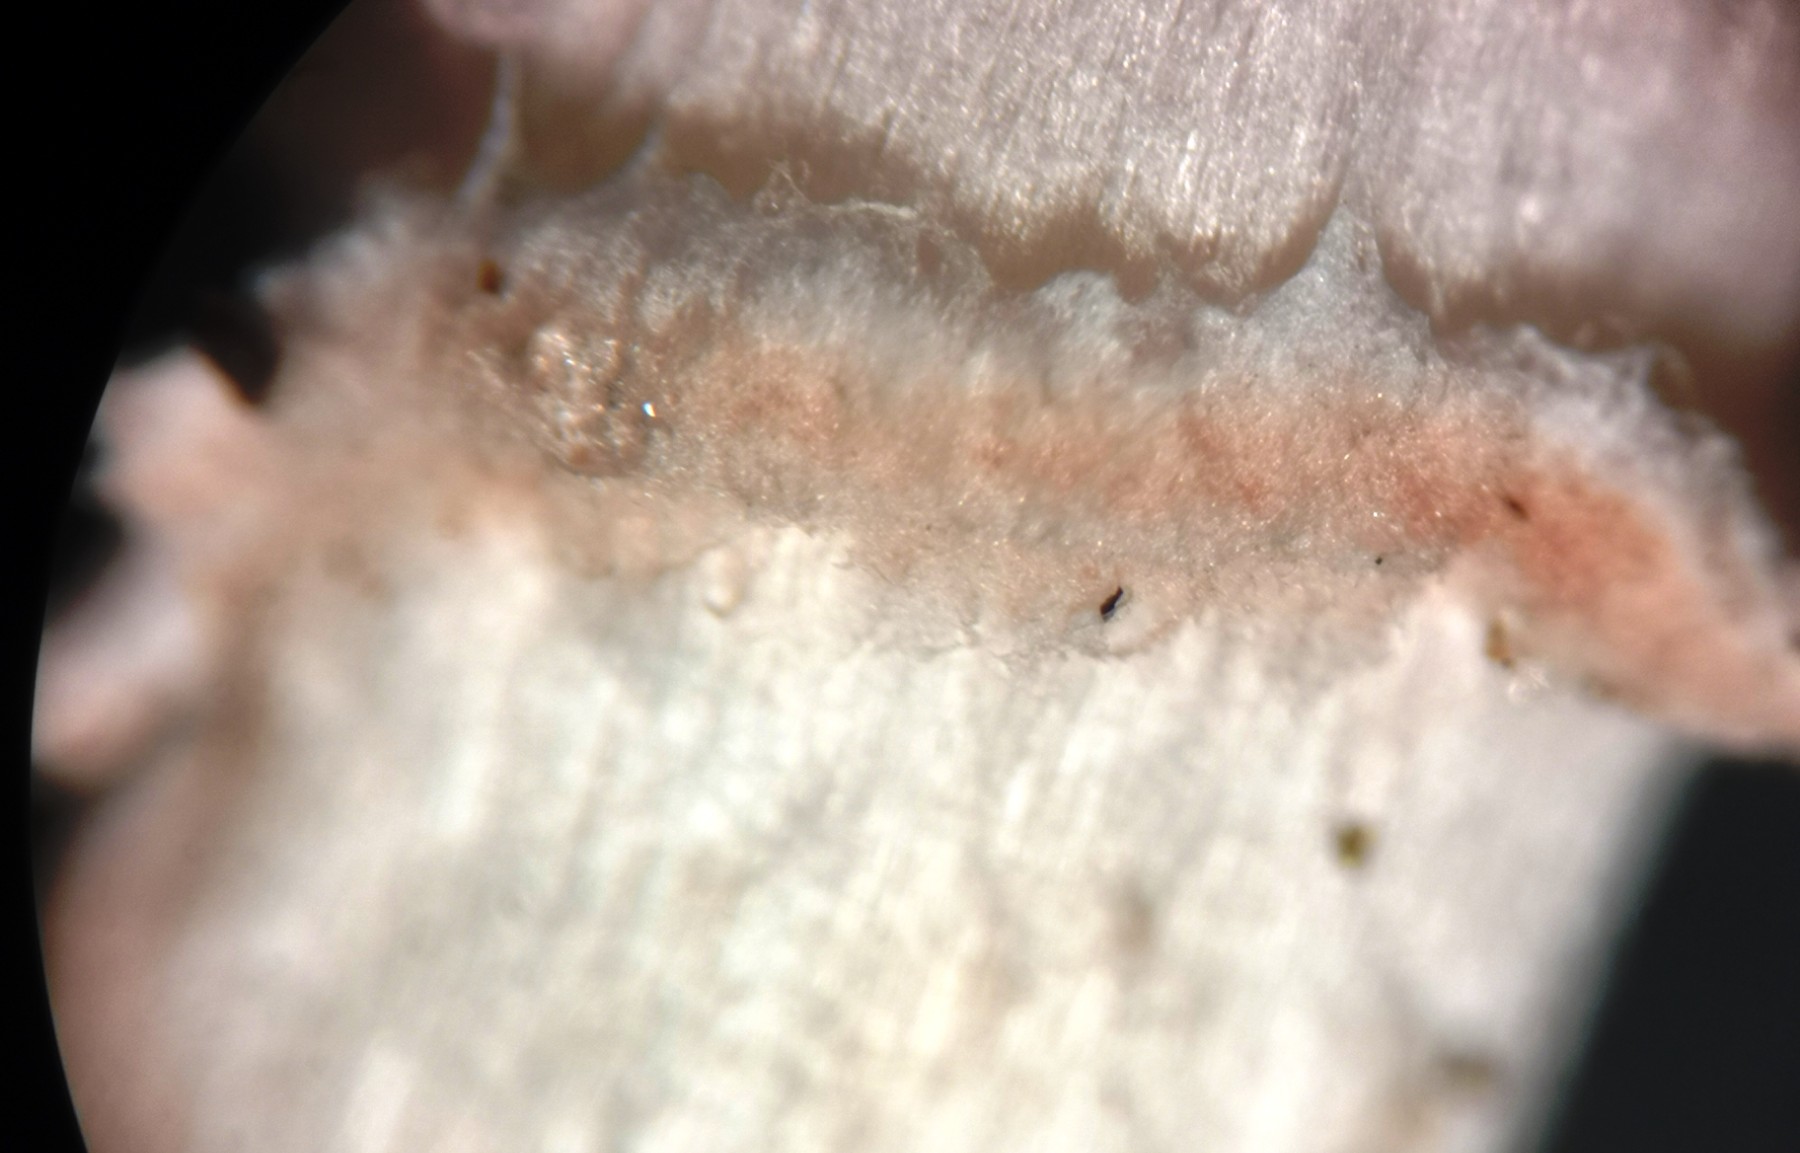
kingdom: Fungi
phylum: Basidiomycota
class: Agaricomycetes
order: Agaricales
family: Agaricaceae
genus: Lepiota
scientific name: Lepiota subincarnata
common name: kødfarvet parasolhat
